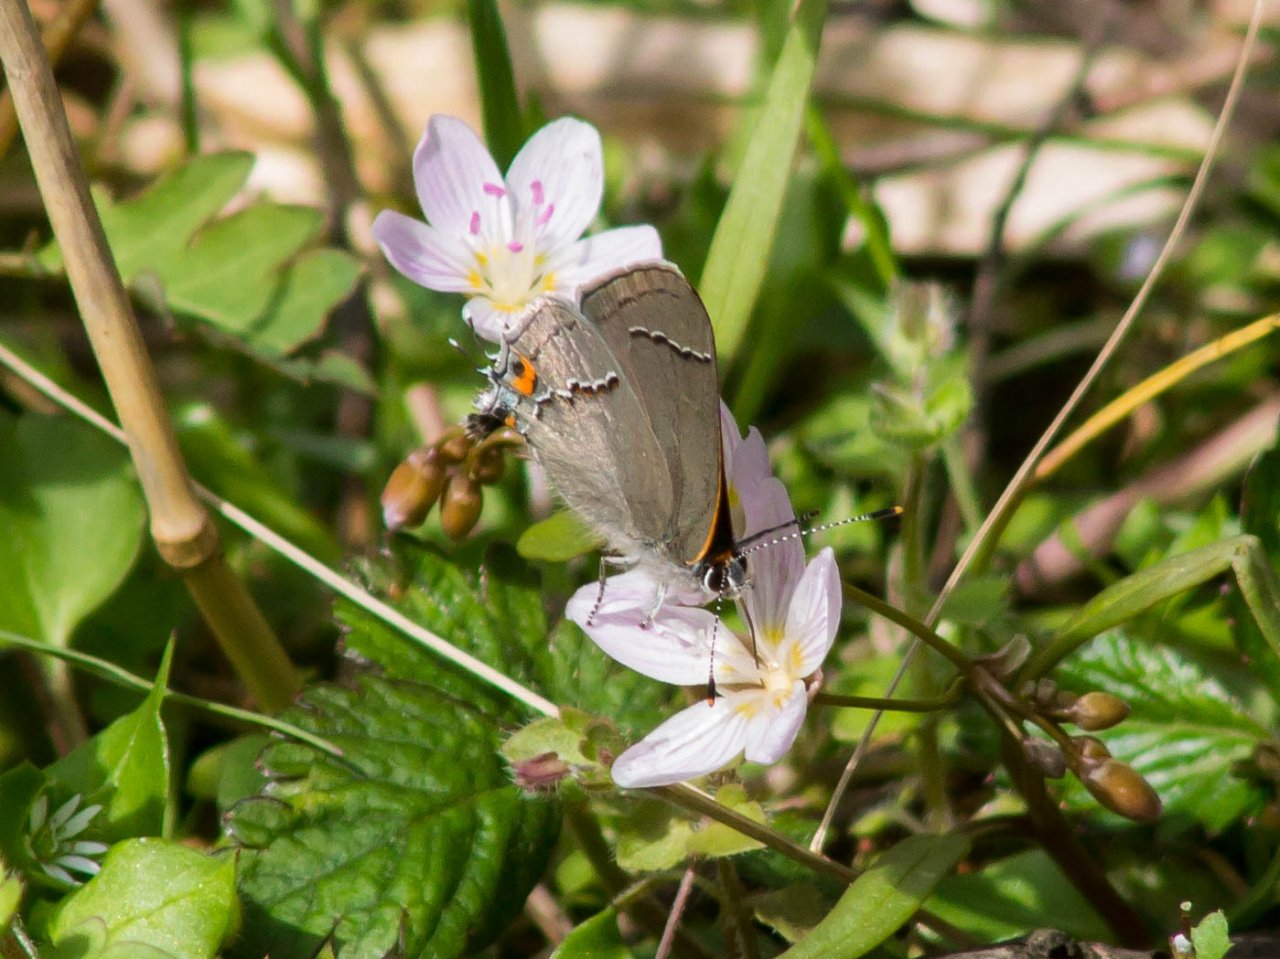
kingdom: Animalia
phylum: Arthropoda
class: Insecta
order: Lepidoptera
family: Lycaenidae
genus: Strymon
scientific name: Strymon melinus
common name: Gray Hairstreak
